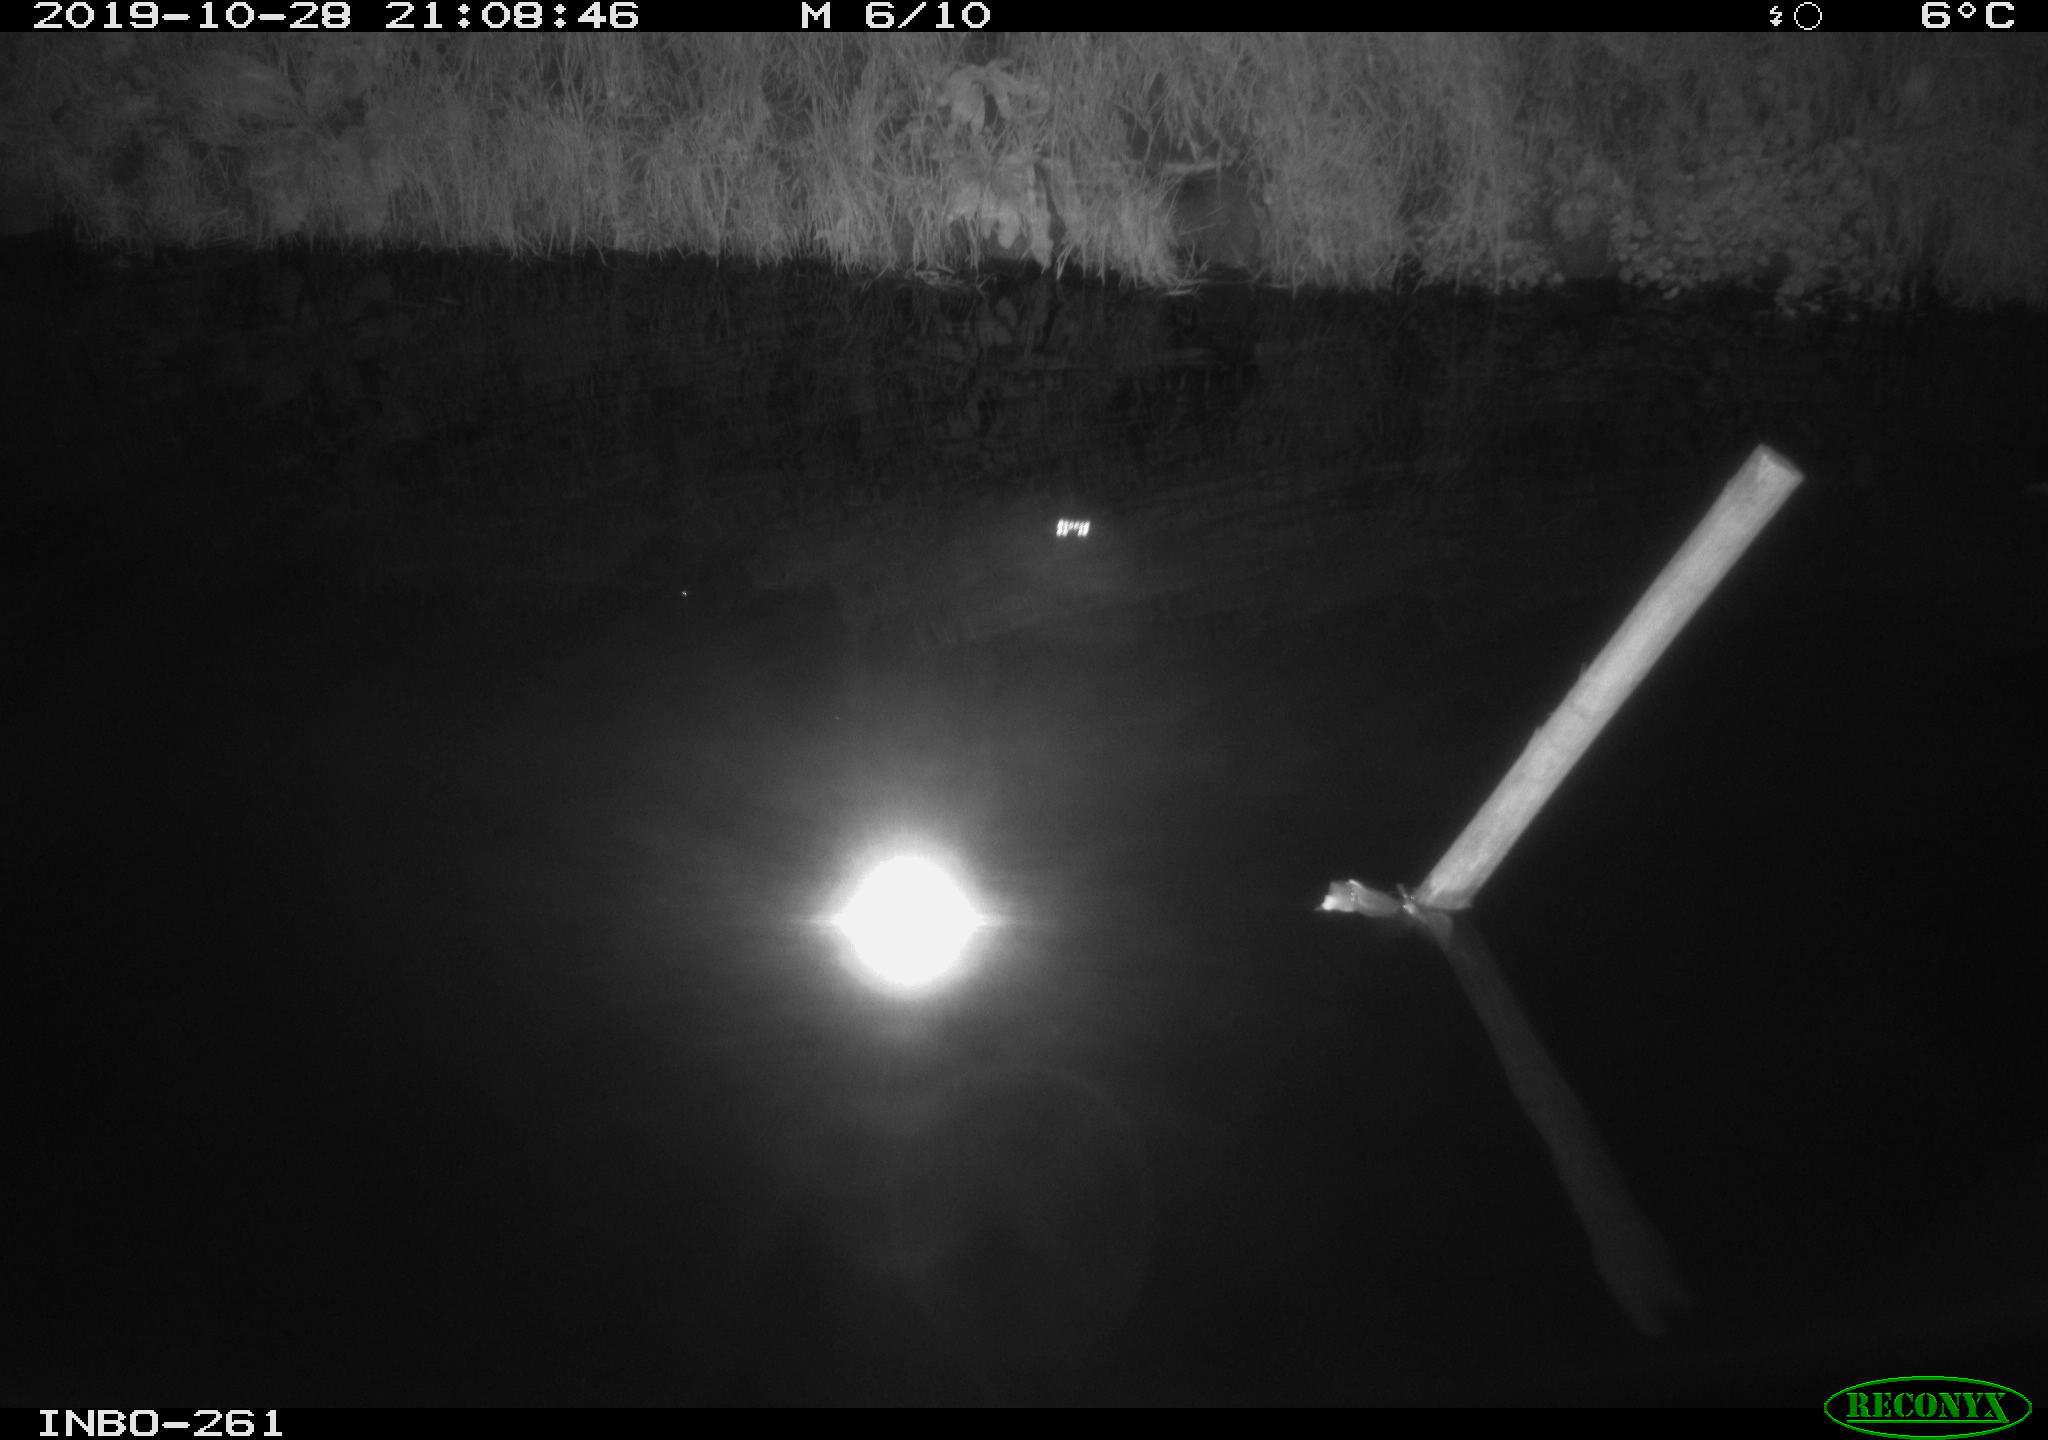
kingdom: Animalia
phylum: Chordata
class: Mammalia
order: Rodentia
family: Muridae
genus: Rattus
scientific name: Rattus norvegicus
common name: Brown rat
